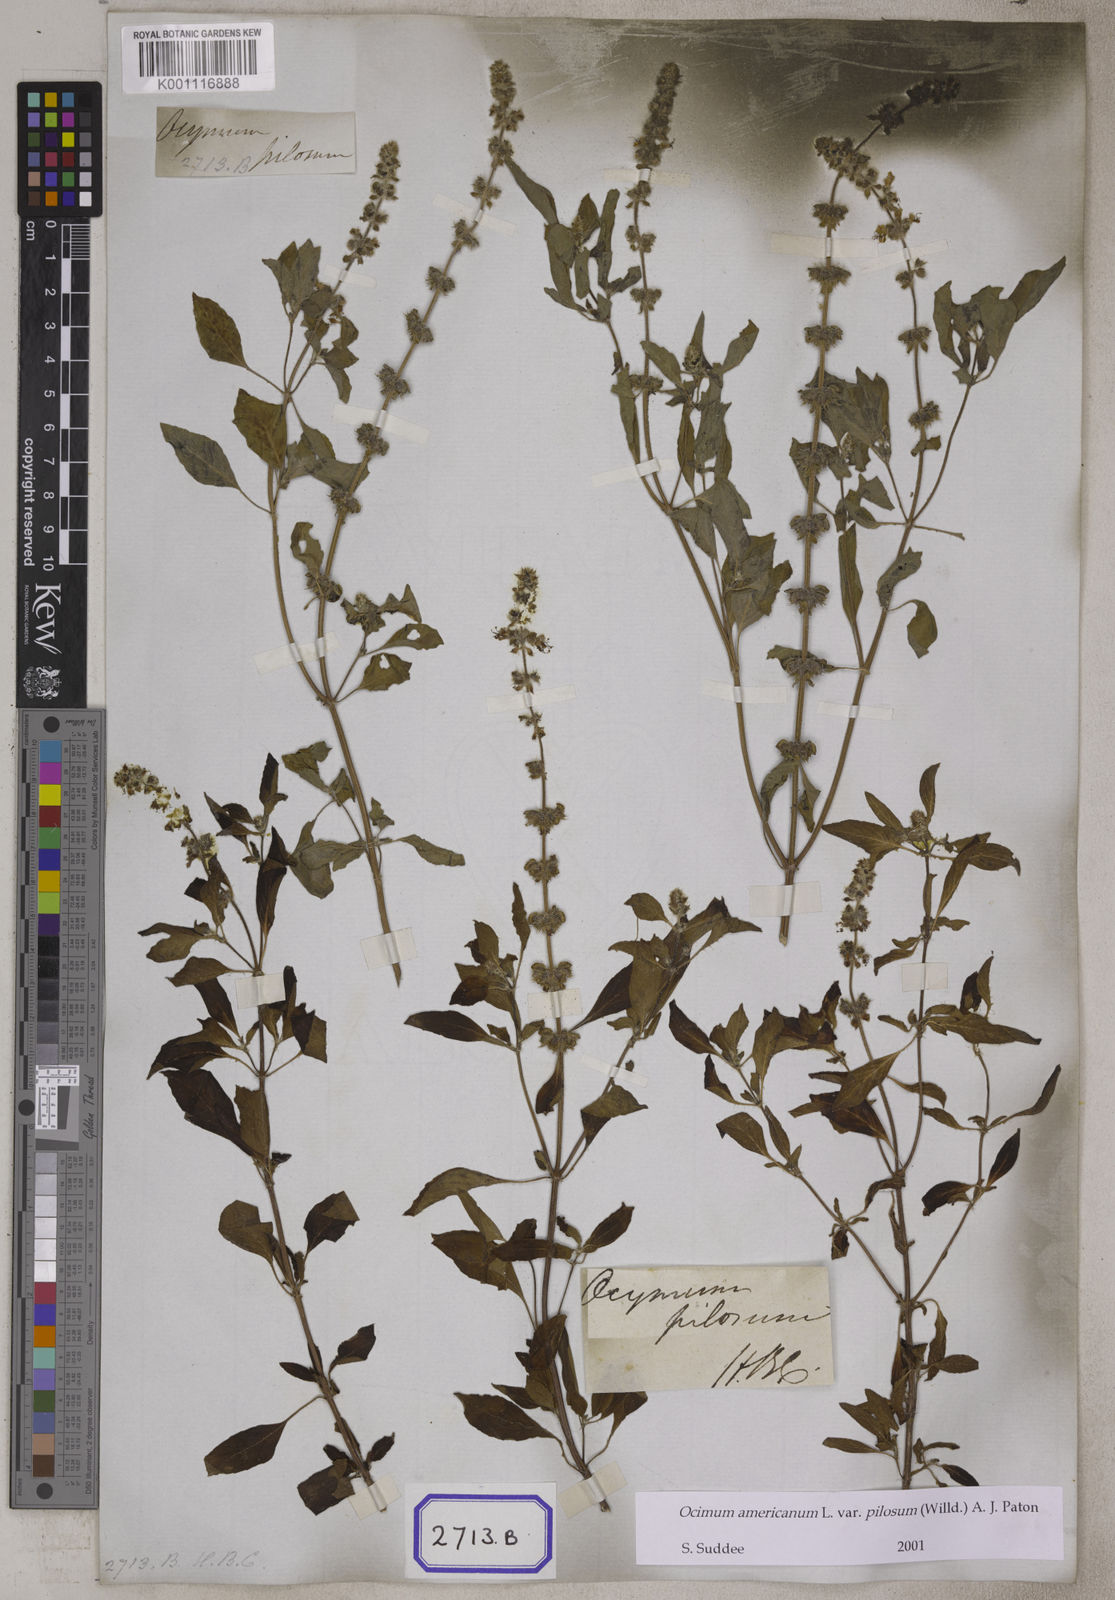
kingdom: Plantae
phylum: Tracheophyta
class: Magnoliopsida
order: Lamiales
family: Lamiaceae
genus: Ocimum
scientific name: Ocimum basilicum
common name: Sweet basil
